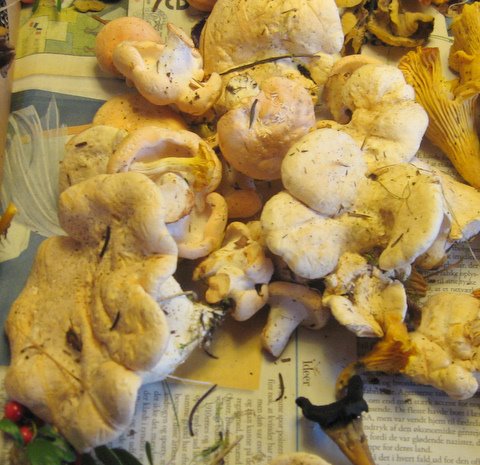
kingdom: Fungi
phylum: Basidiomycota
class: Agaricomycetes
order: Cantharellales
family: Hydnaceae
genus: Hydnum
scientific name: Hydnum repandum
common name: almindelig pigsvamp
